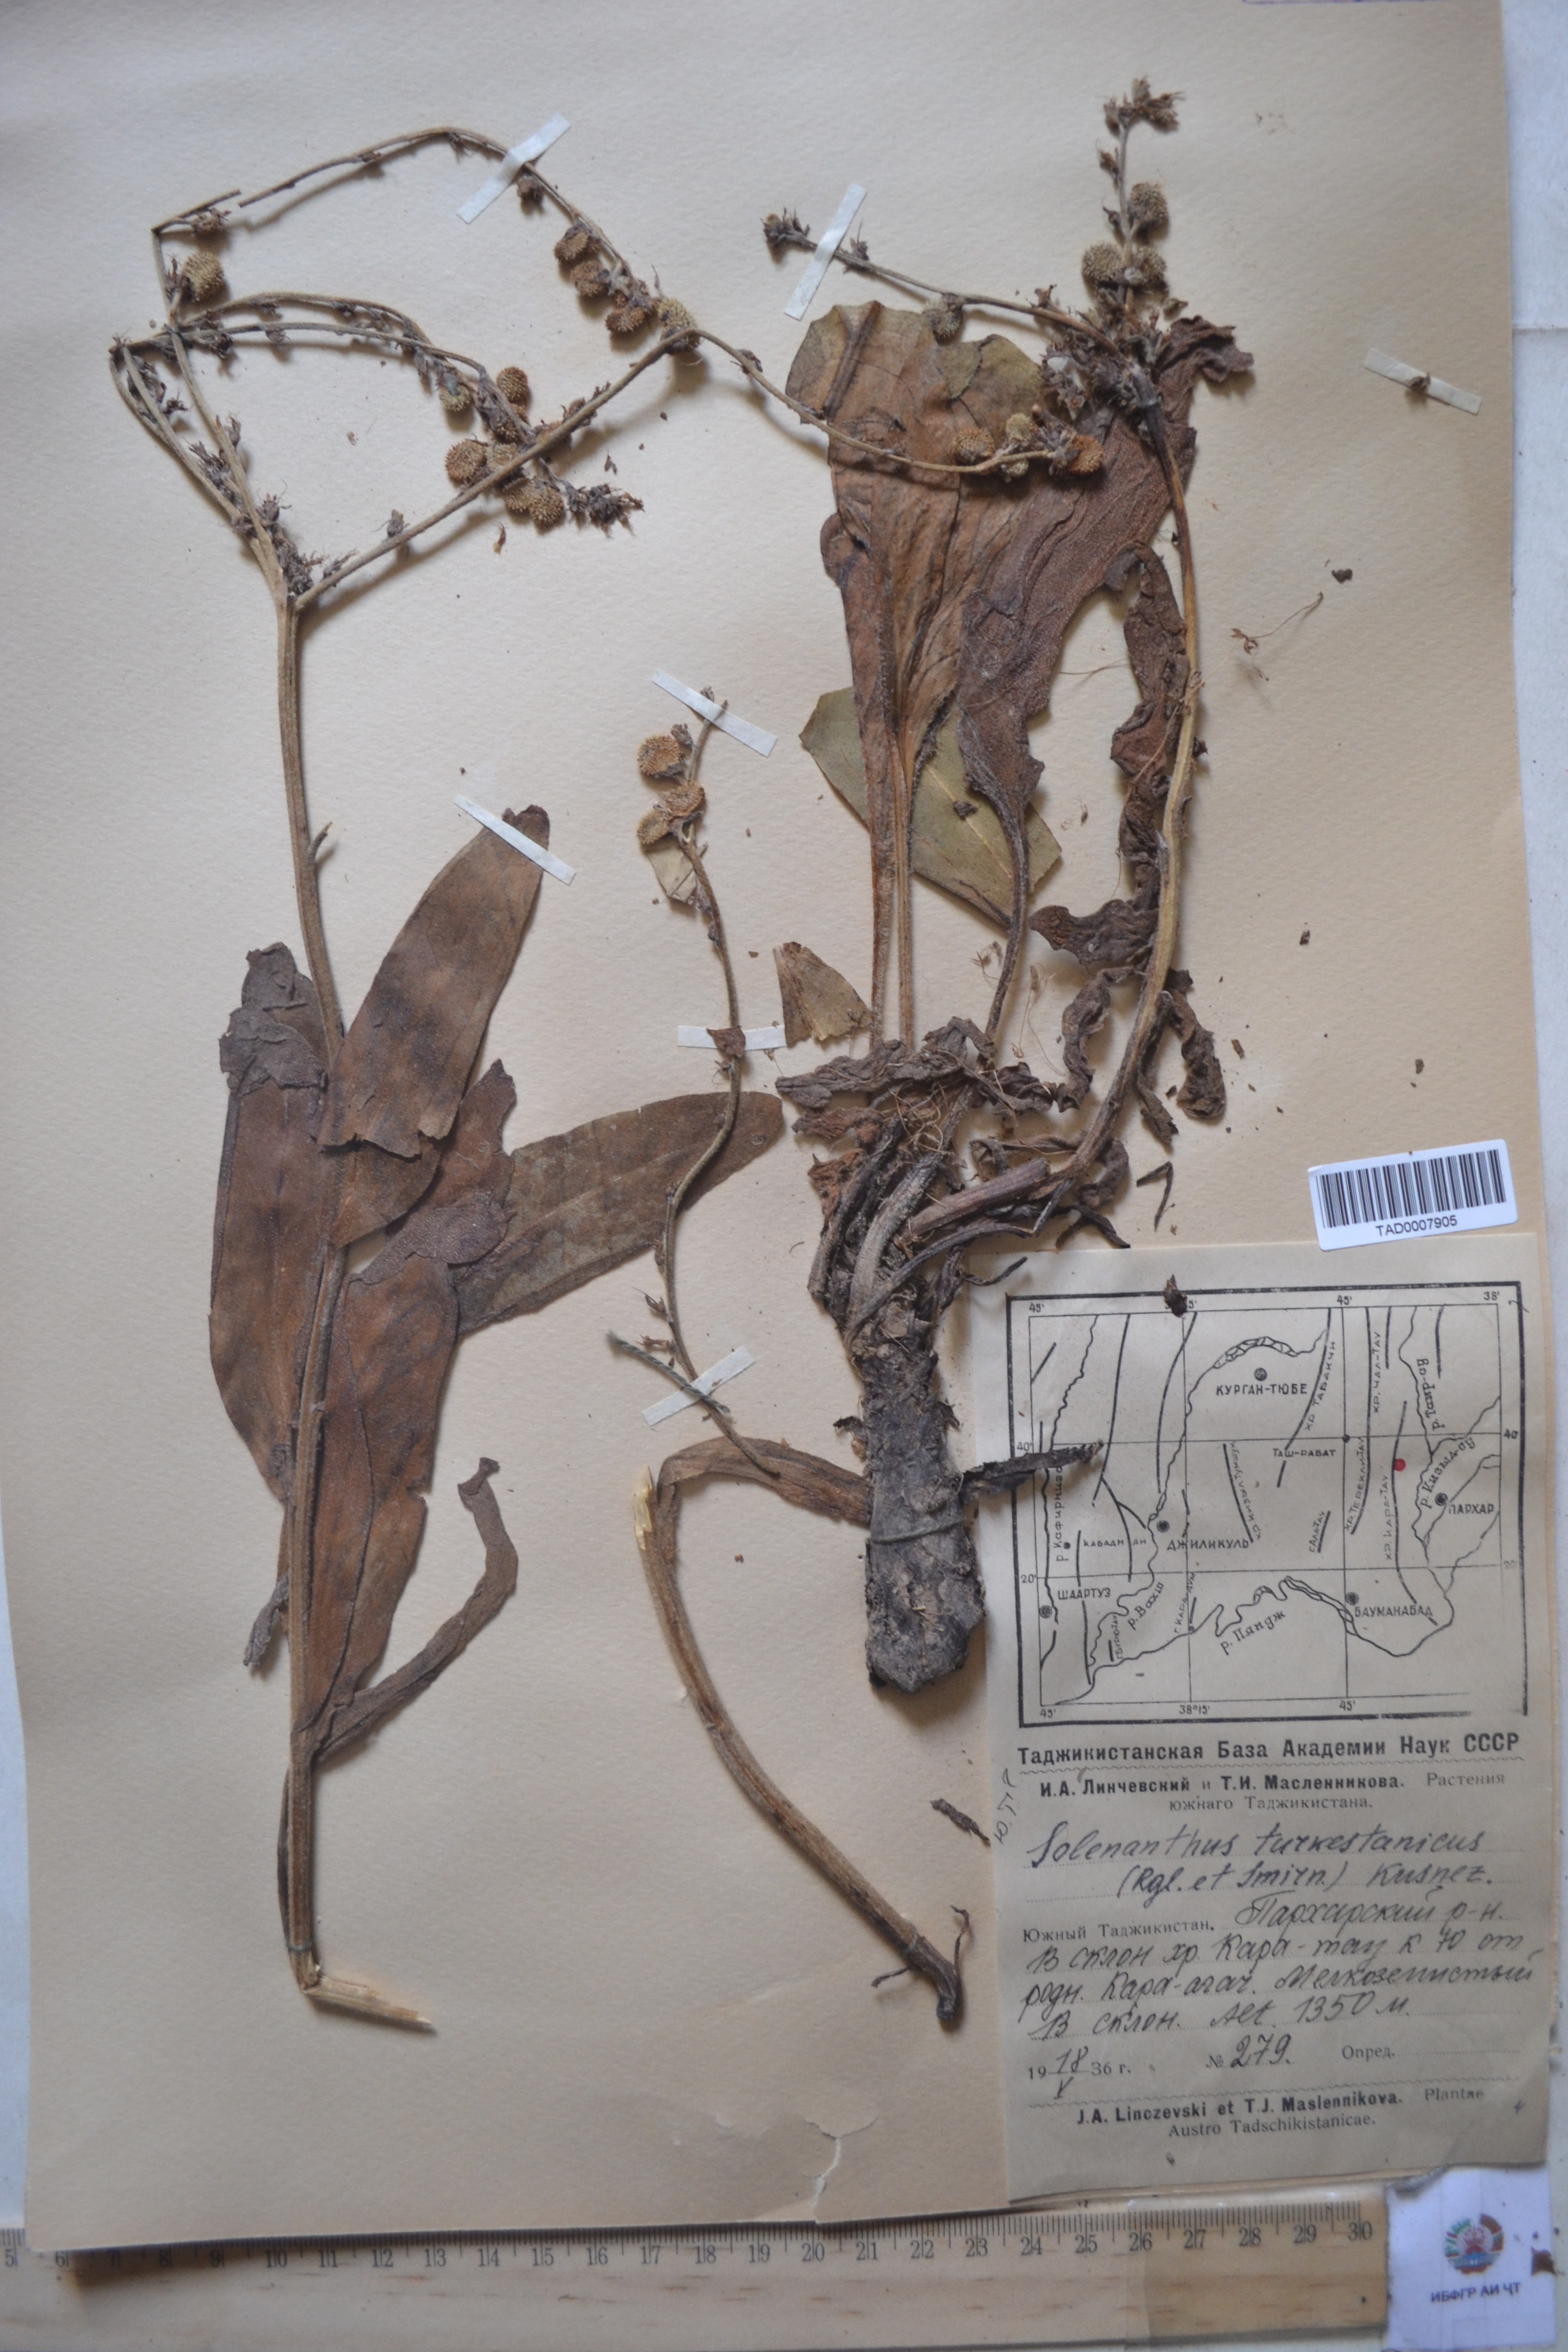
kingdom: Plantae
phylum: Tracheophyta
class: Magnoliopsida
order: Boraginales
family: Boraginaceae
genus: Solenanthus
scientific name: Solenanthus turkestanicus
